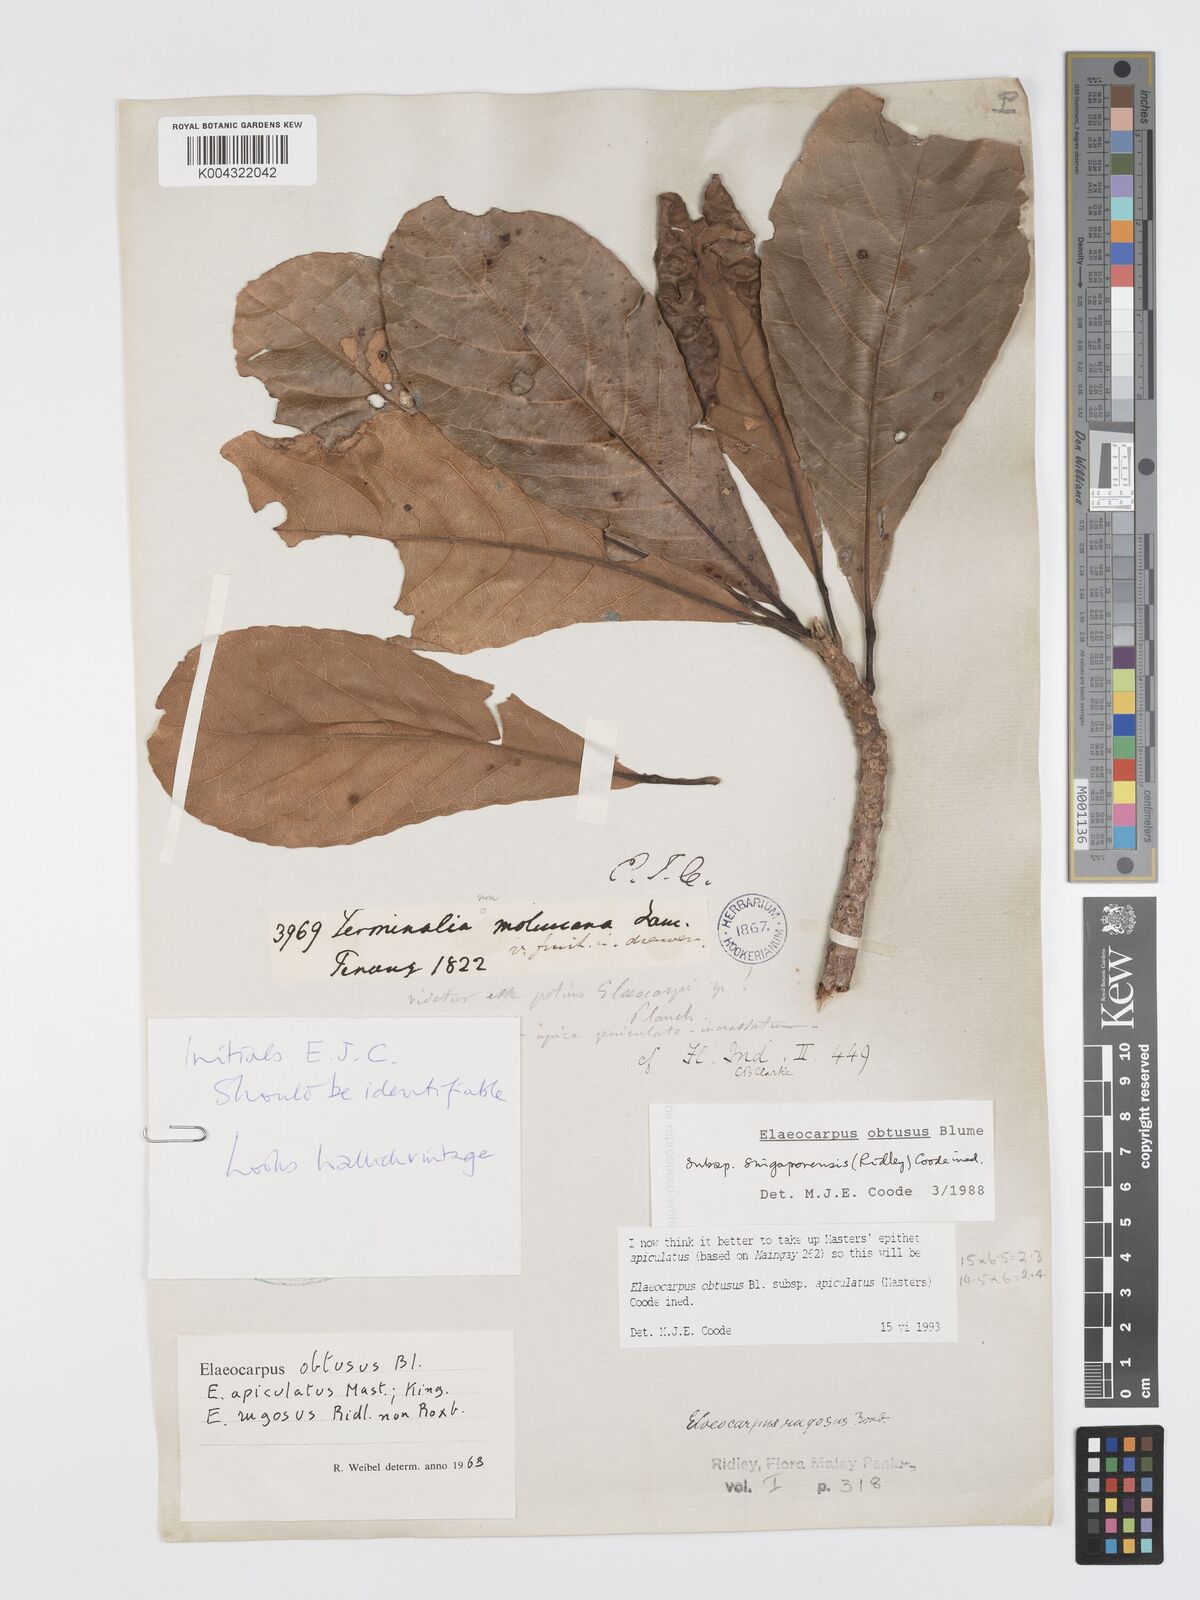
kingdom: Plantae
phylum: Tracheophyta
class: Magnoliopsida
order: Oxalidales
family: Elaeocarpaceae
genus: Elaeocarpus
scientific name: Elaeocarpus obtusus
